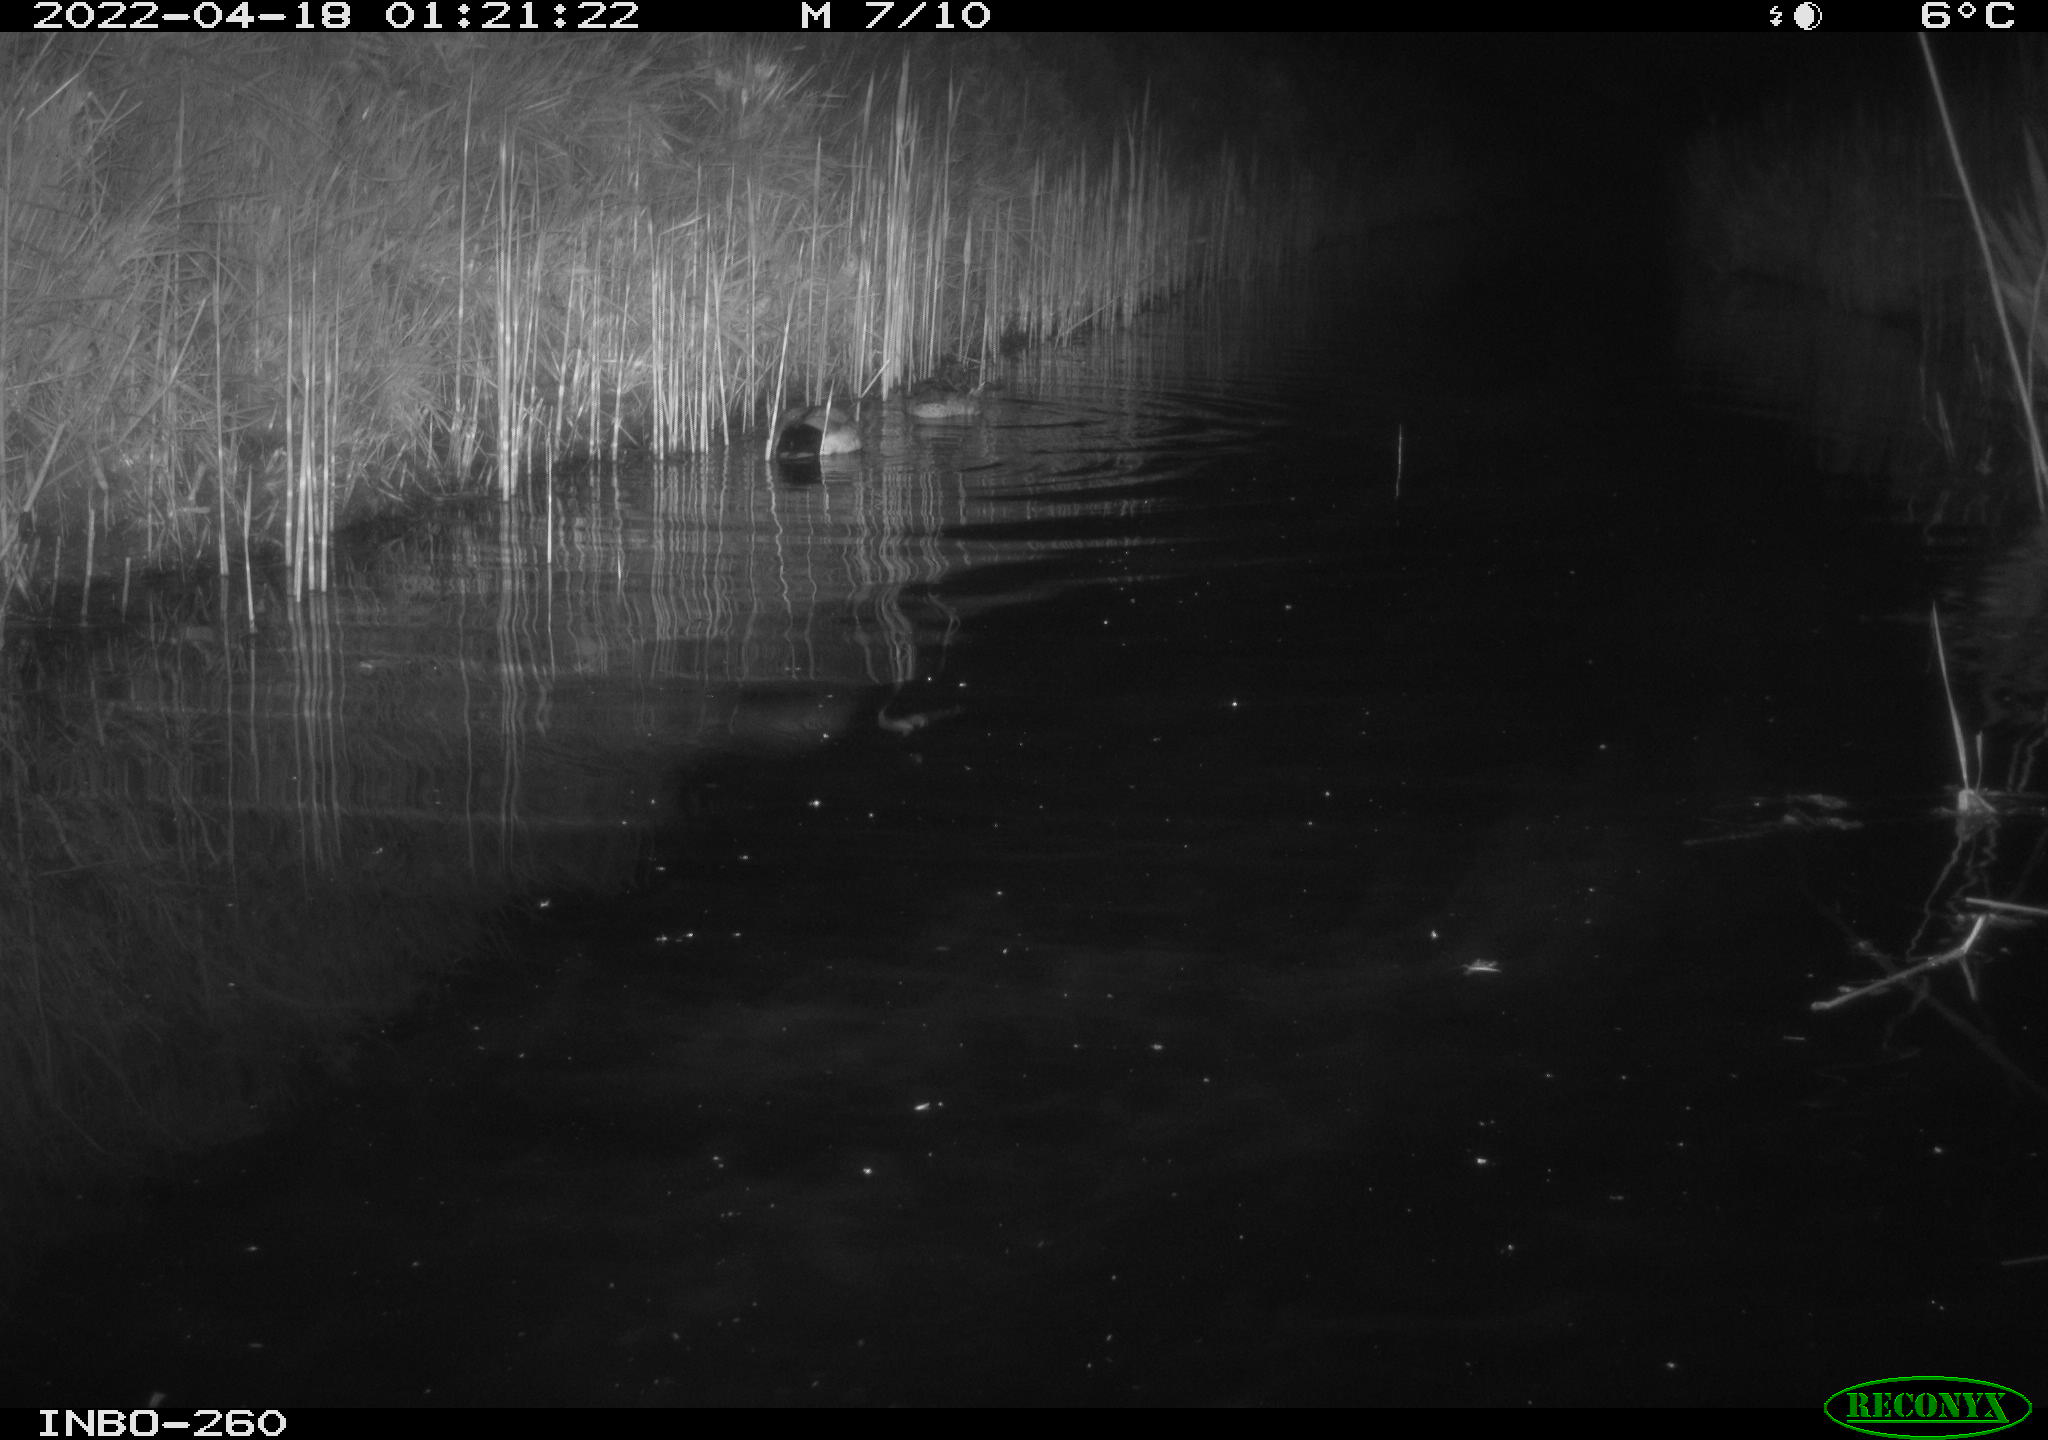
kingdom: Animalia
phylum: Chordata
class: Aves
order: Anseriformes
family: Anatidae
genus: Anas
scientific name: Anas platyrhynchos
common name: Mallard
